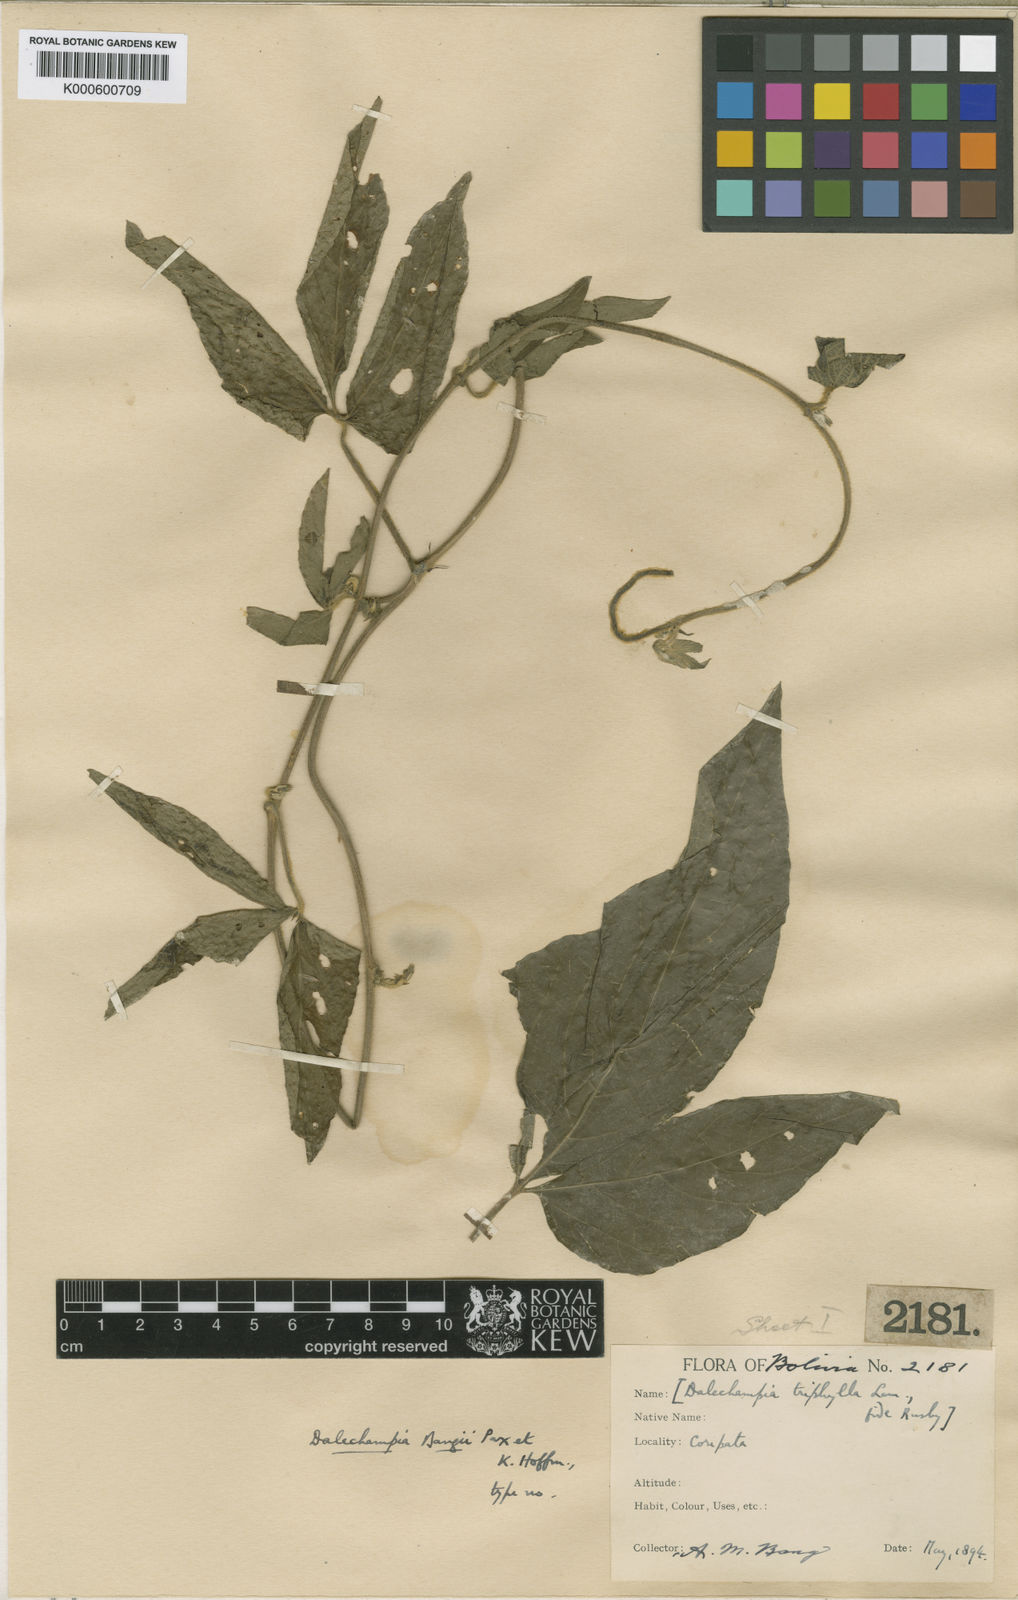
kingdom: Plantae
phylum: Tracheophyta
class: Magnoliopsida
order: Malpighiales
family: Euphorbiaceae
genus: Dalechampia
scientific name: Dalechampia bangii
